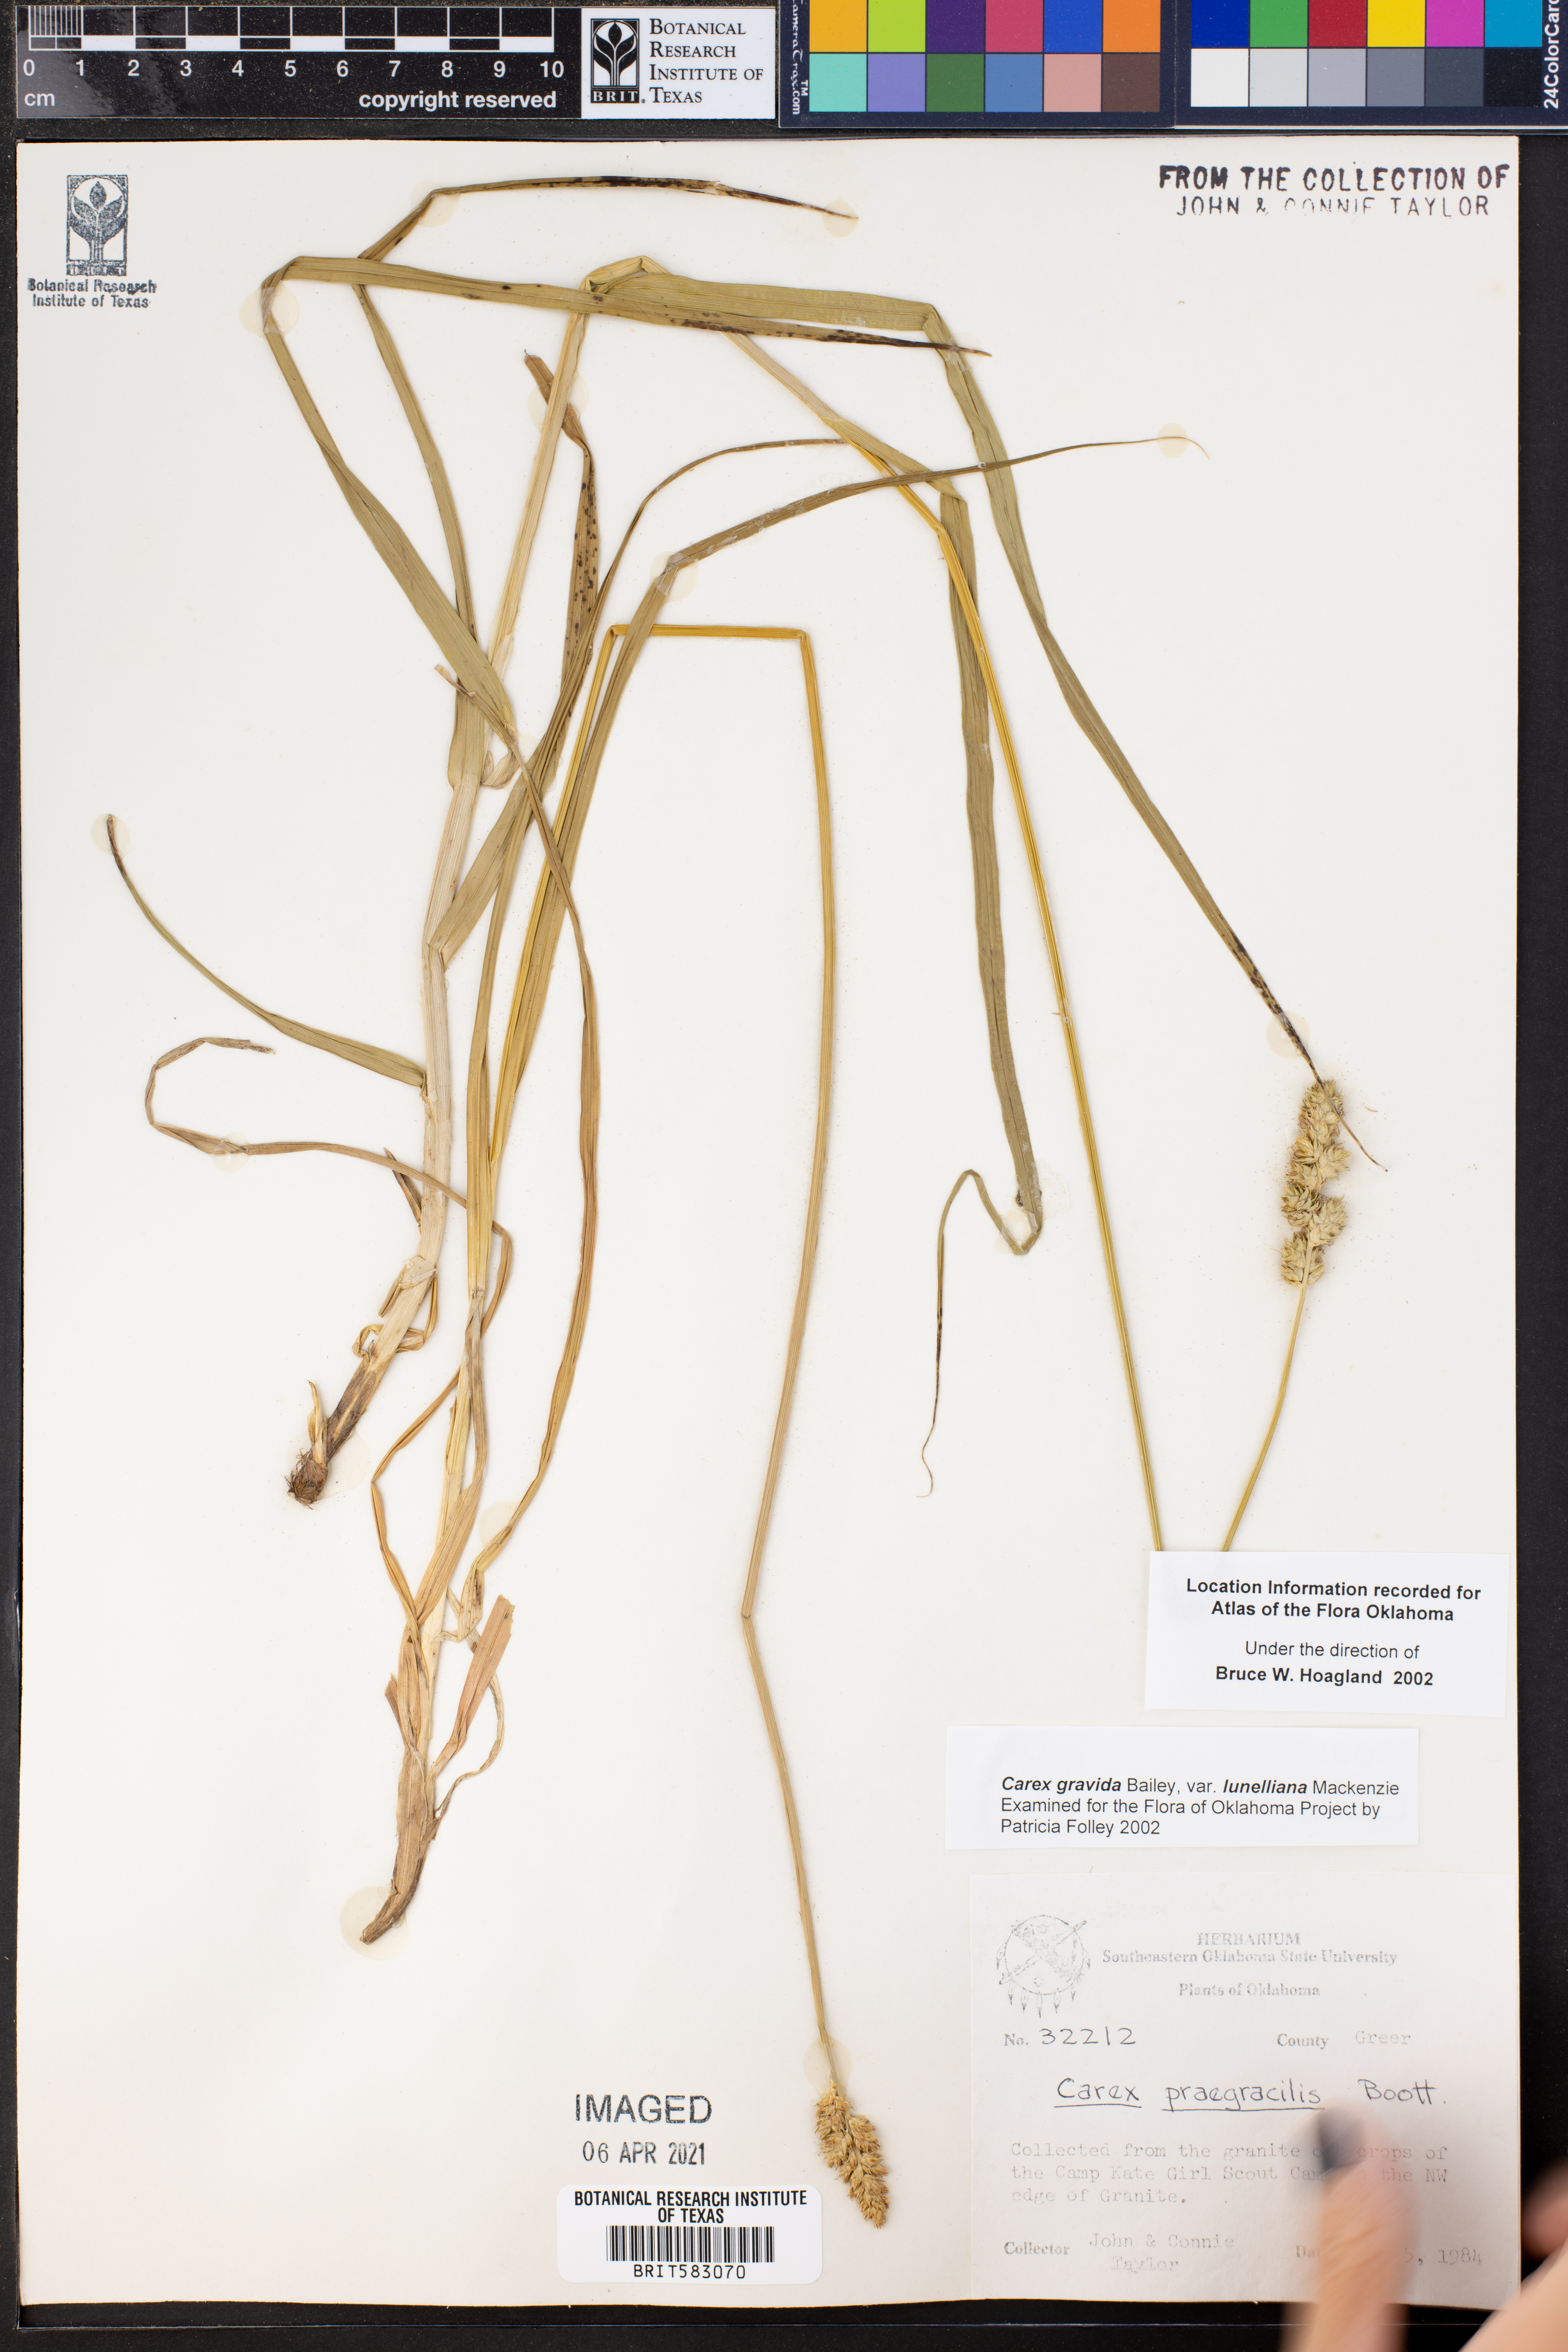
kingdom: Plantae
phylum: Tracheophyta
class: Liliopsida
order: Poales
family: Cyperaceae
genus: Carex
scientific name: Carex gravida
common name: Heavy sedge
